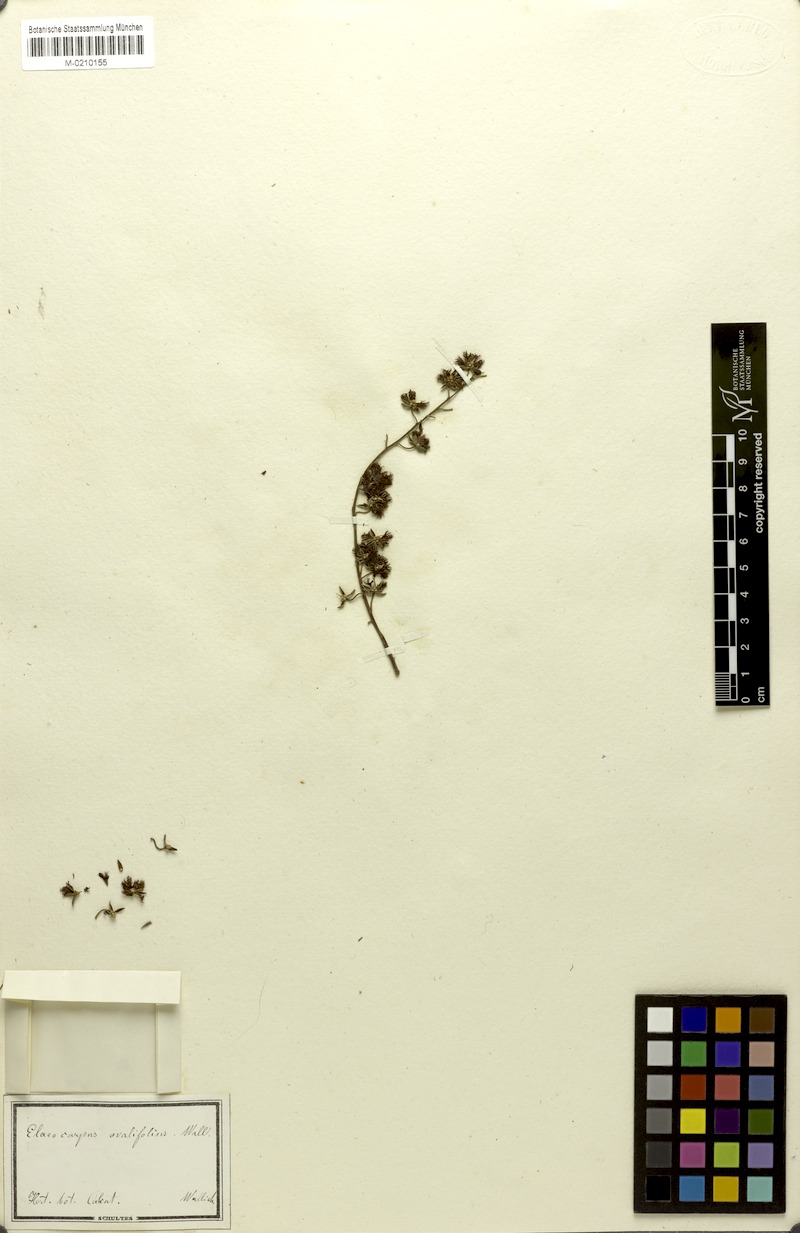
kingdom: Plantae
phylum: Tracheophyta
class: Magnoliopsida
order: Oxalidales
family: Elaeocarpaceae
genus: Elaeocarpus
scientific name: Elaeocarpus robustus
